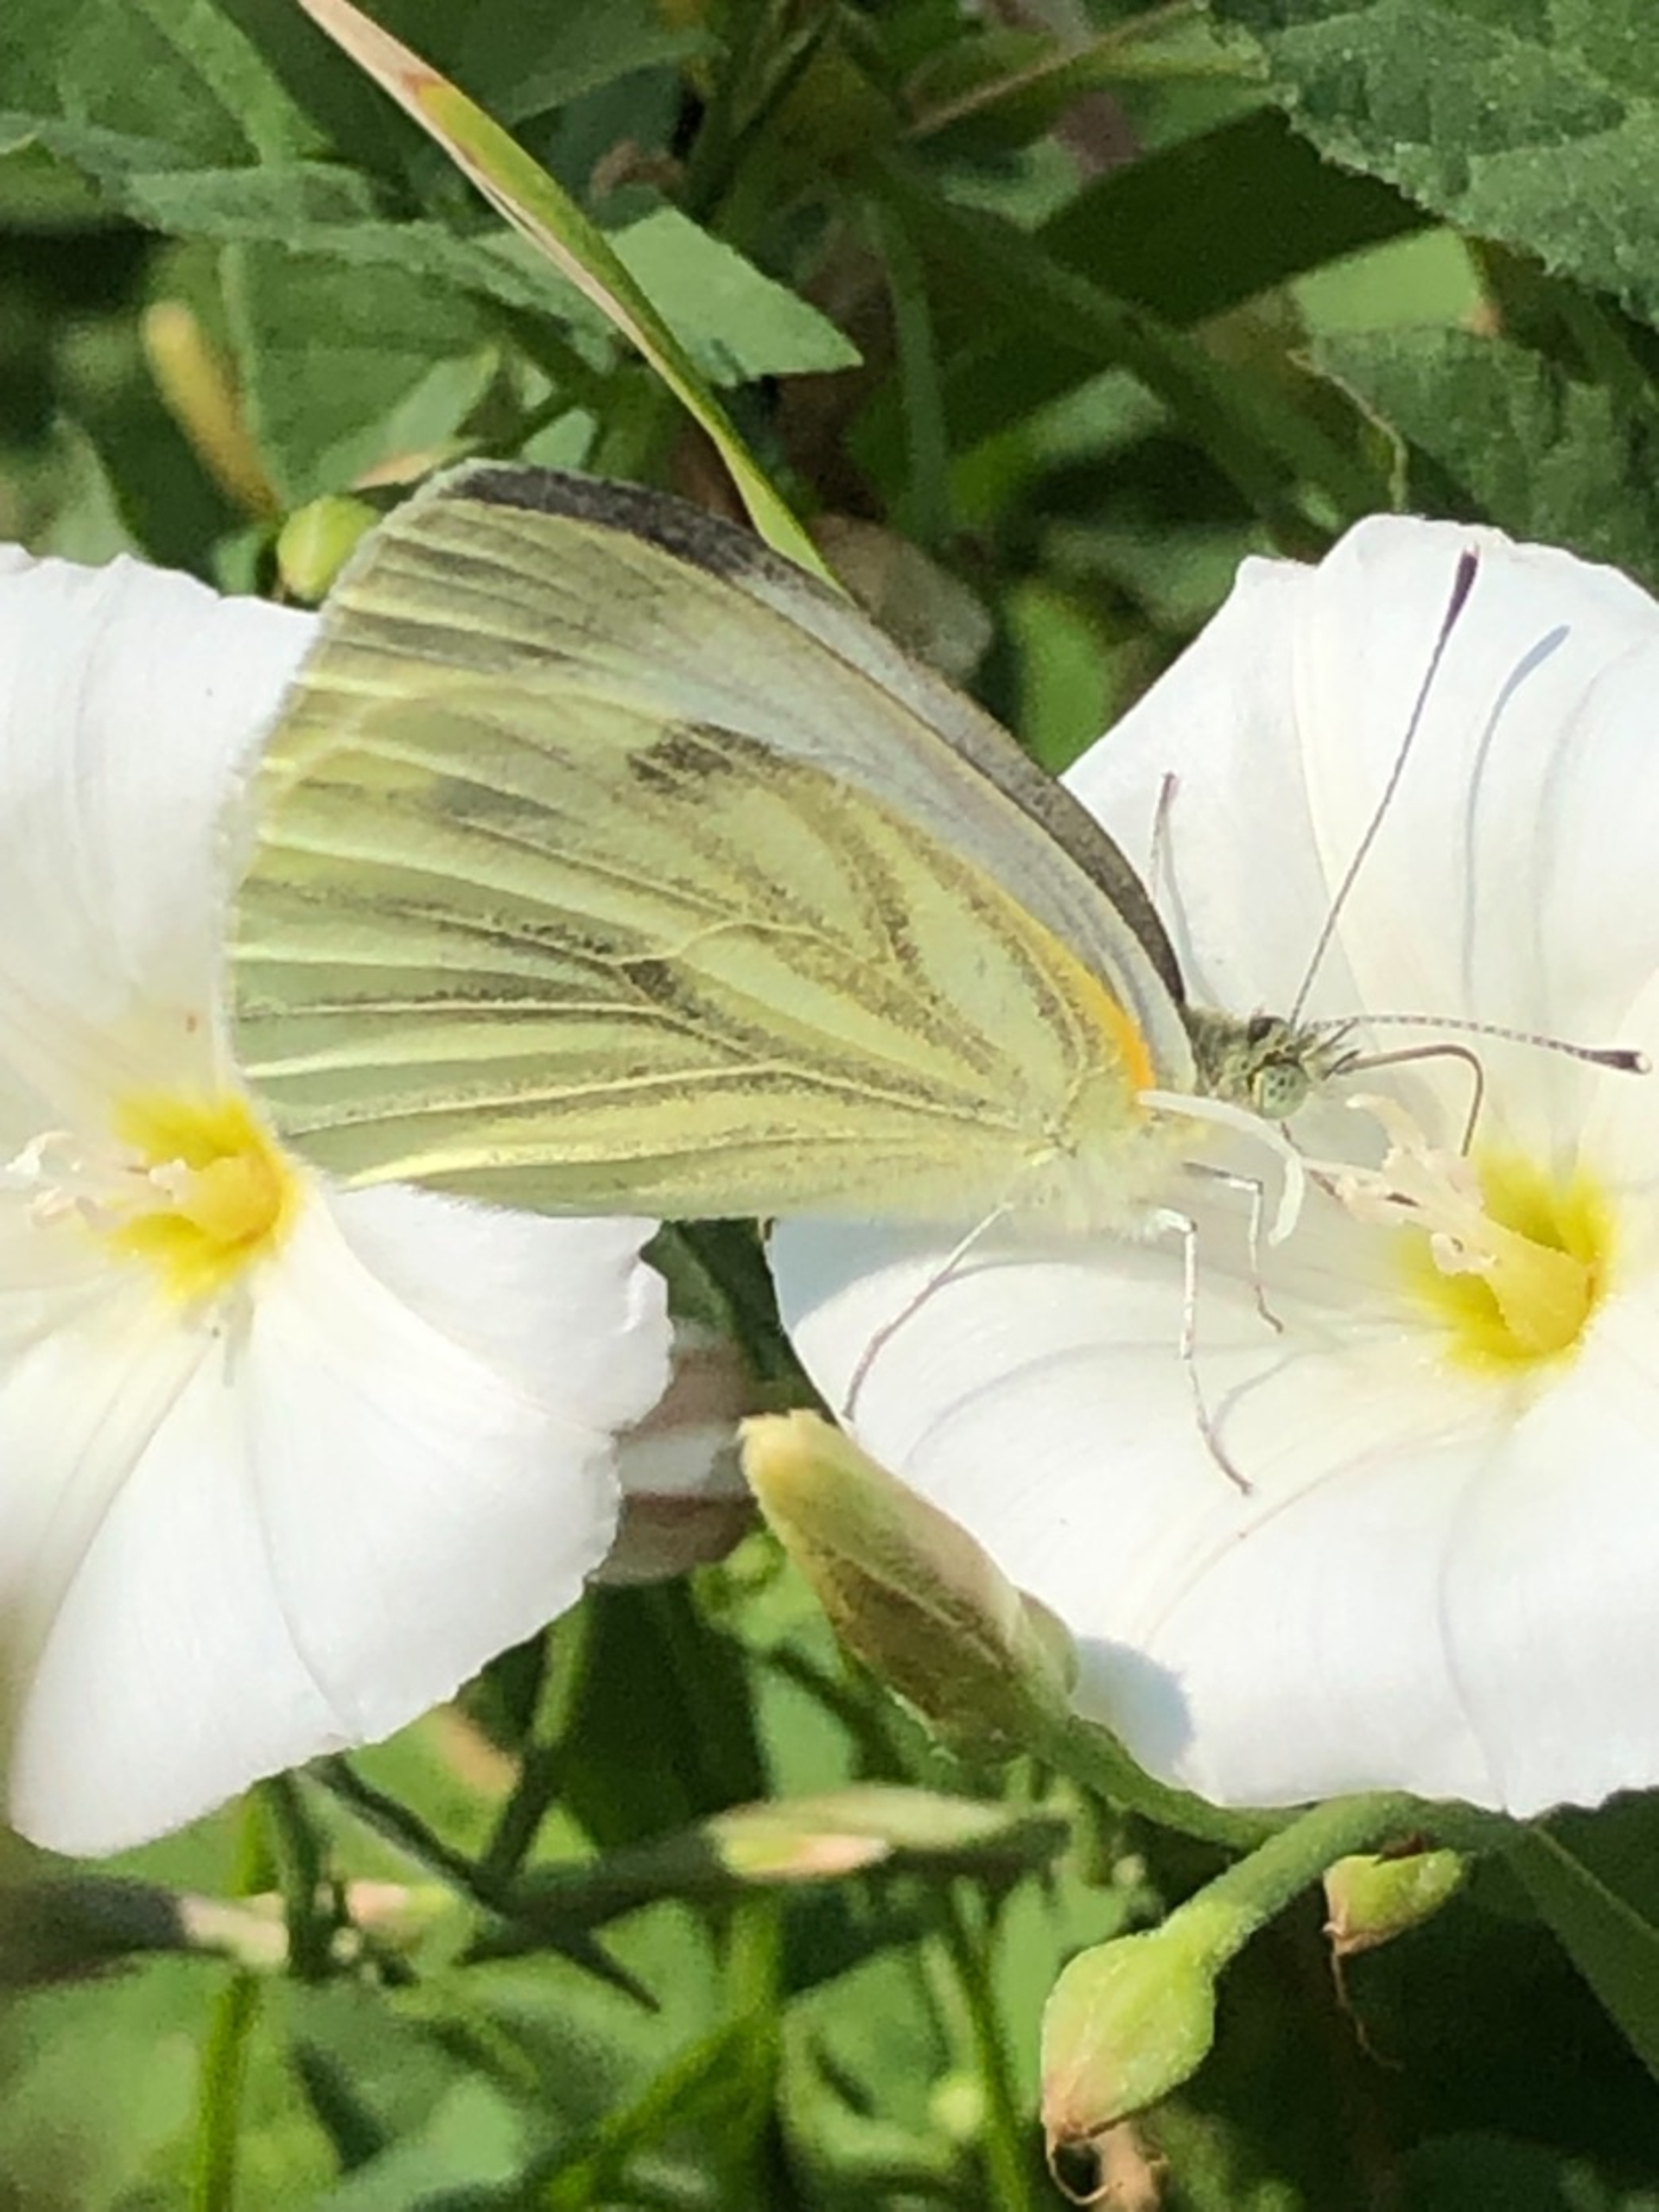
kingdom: Animalia
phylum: Arthropoda
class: Insecta
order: Lepidoptera
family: Pieridae
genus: Pieris
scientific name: Pieris napi
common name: Grønåret kålsommerfugl
